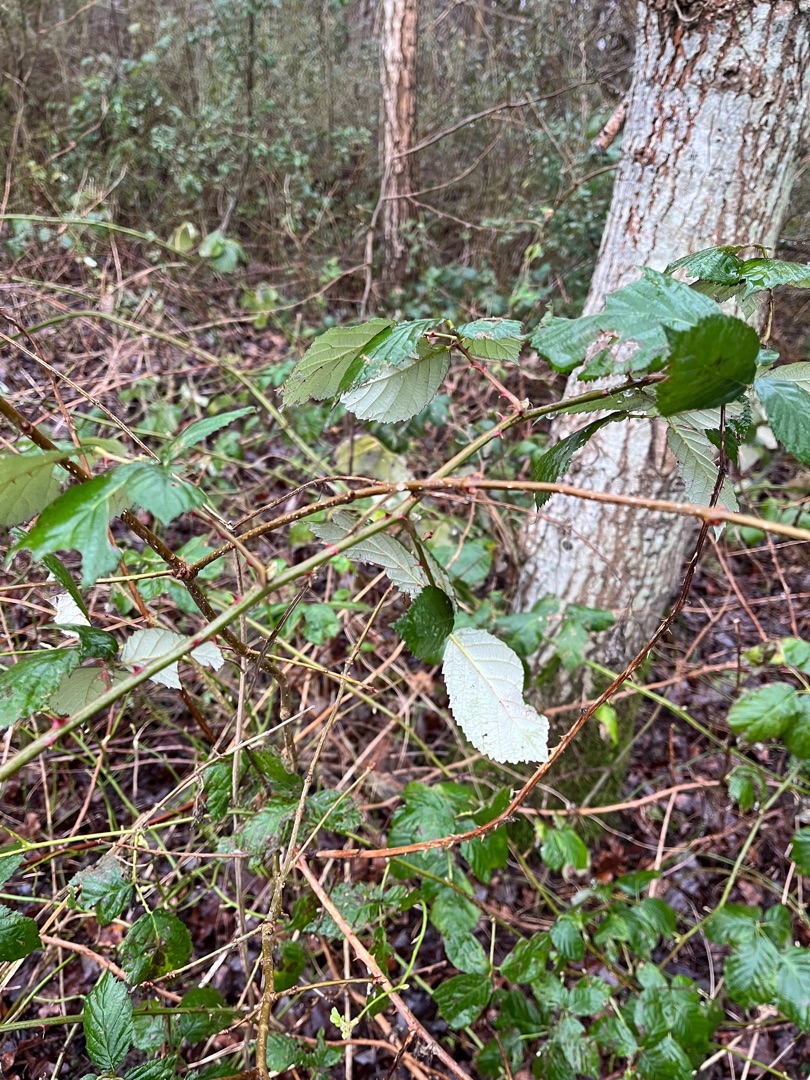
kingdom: Plantae
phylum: Tracheophyta
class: Magnoliopsida
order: Rosales
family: Rosaceae
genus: Rubus
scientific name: Rubus armeniacus
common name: Armensk brombær
